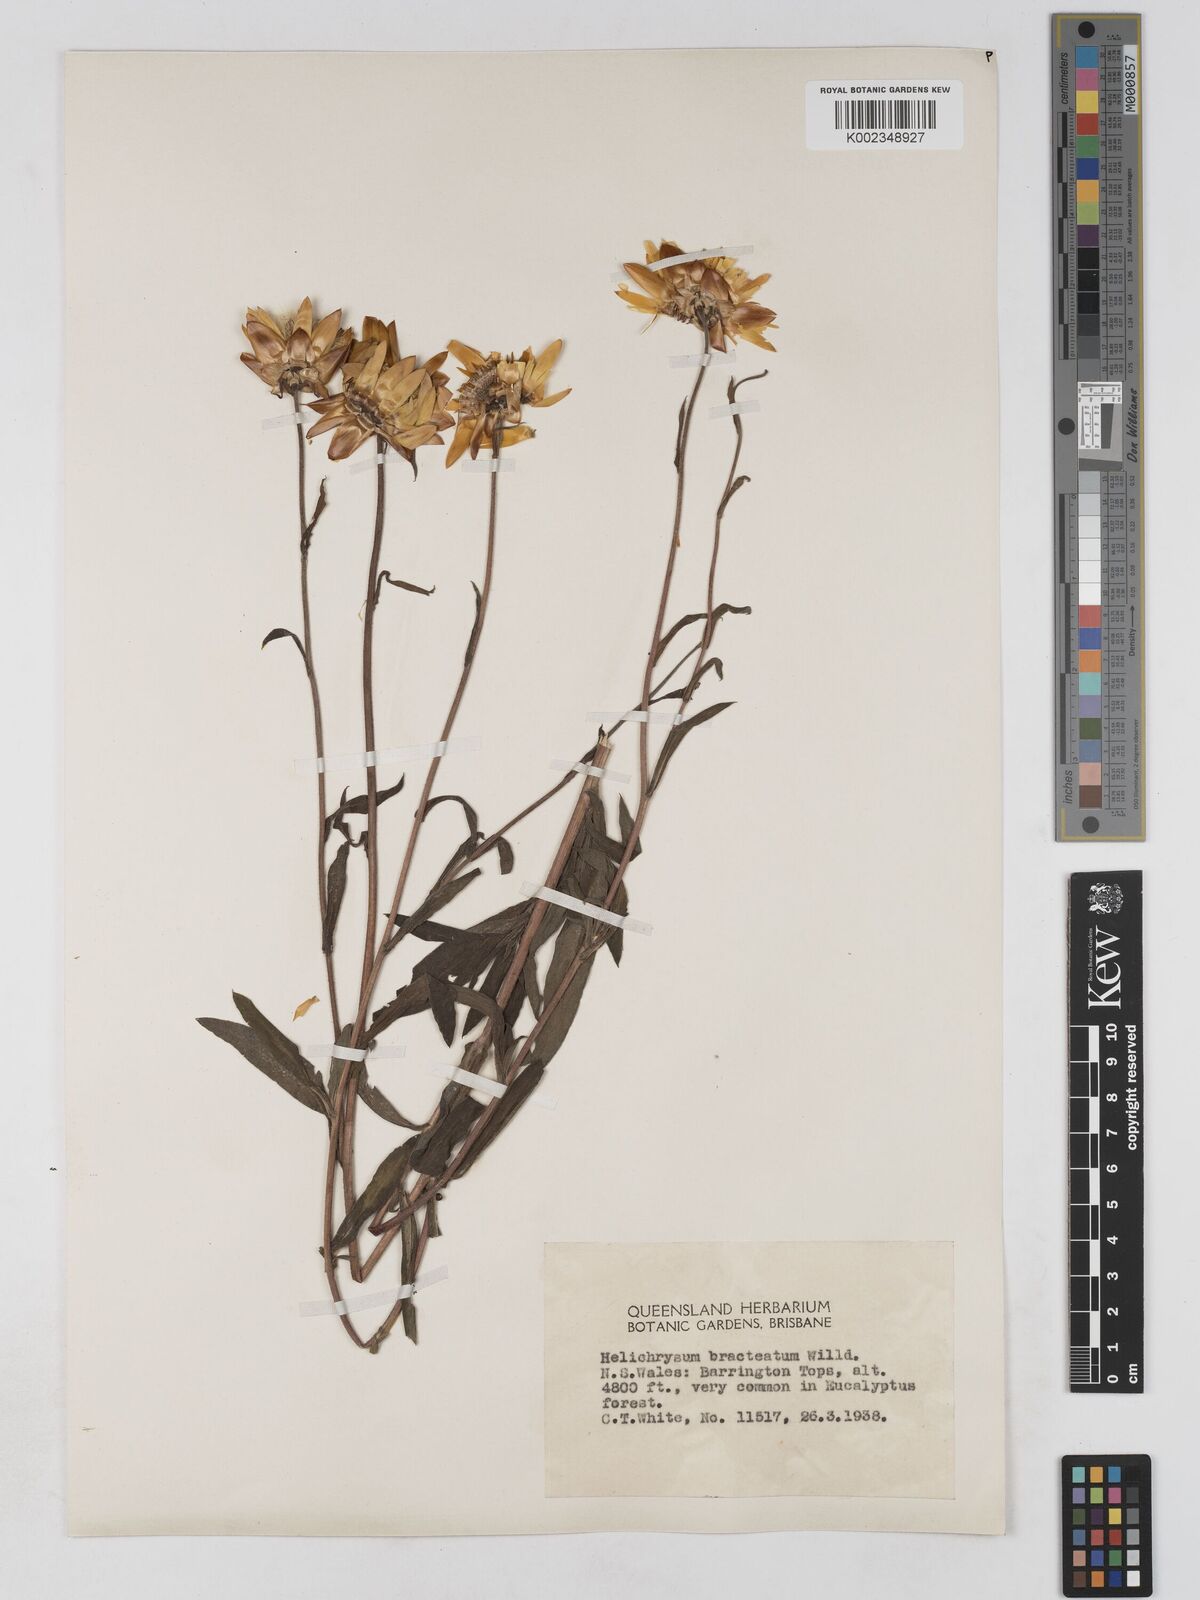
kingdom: Plantae
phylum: Tracheophyta
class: Magnoliopsida
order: Asterales
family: Asteraceae
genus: Xerochrysum
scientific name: Xerochrysum bracteatum
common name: Bracted strawflower
